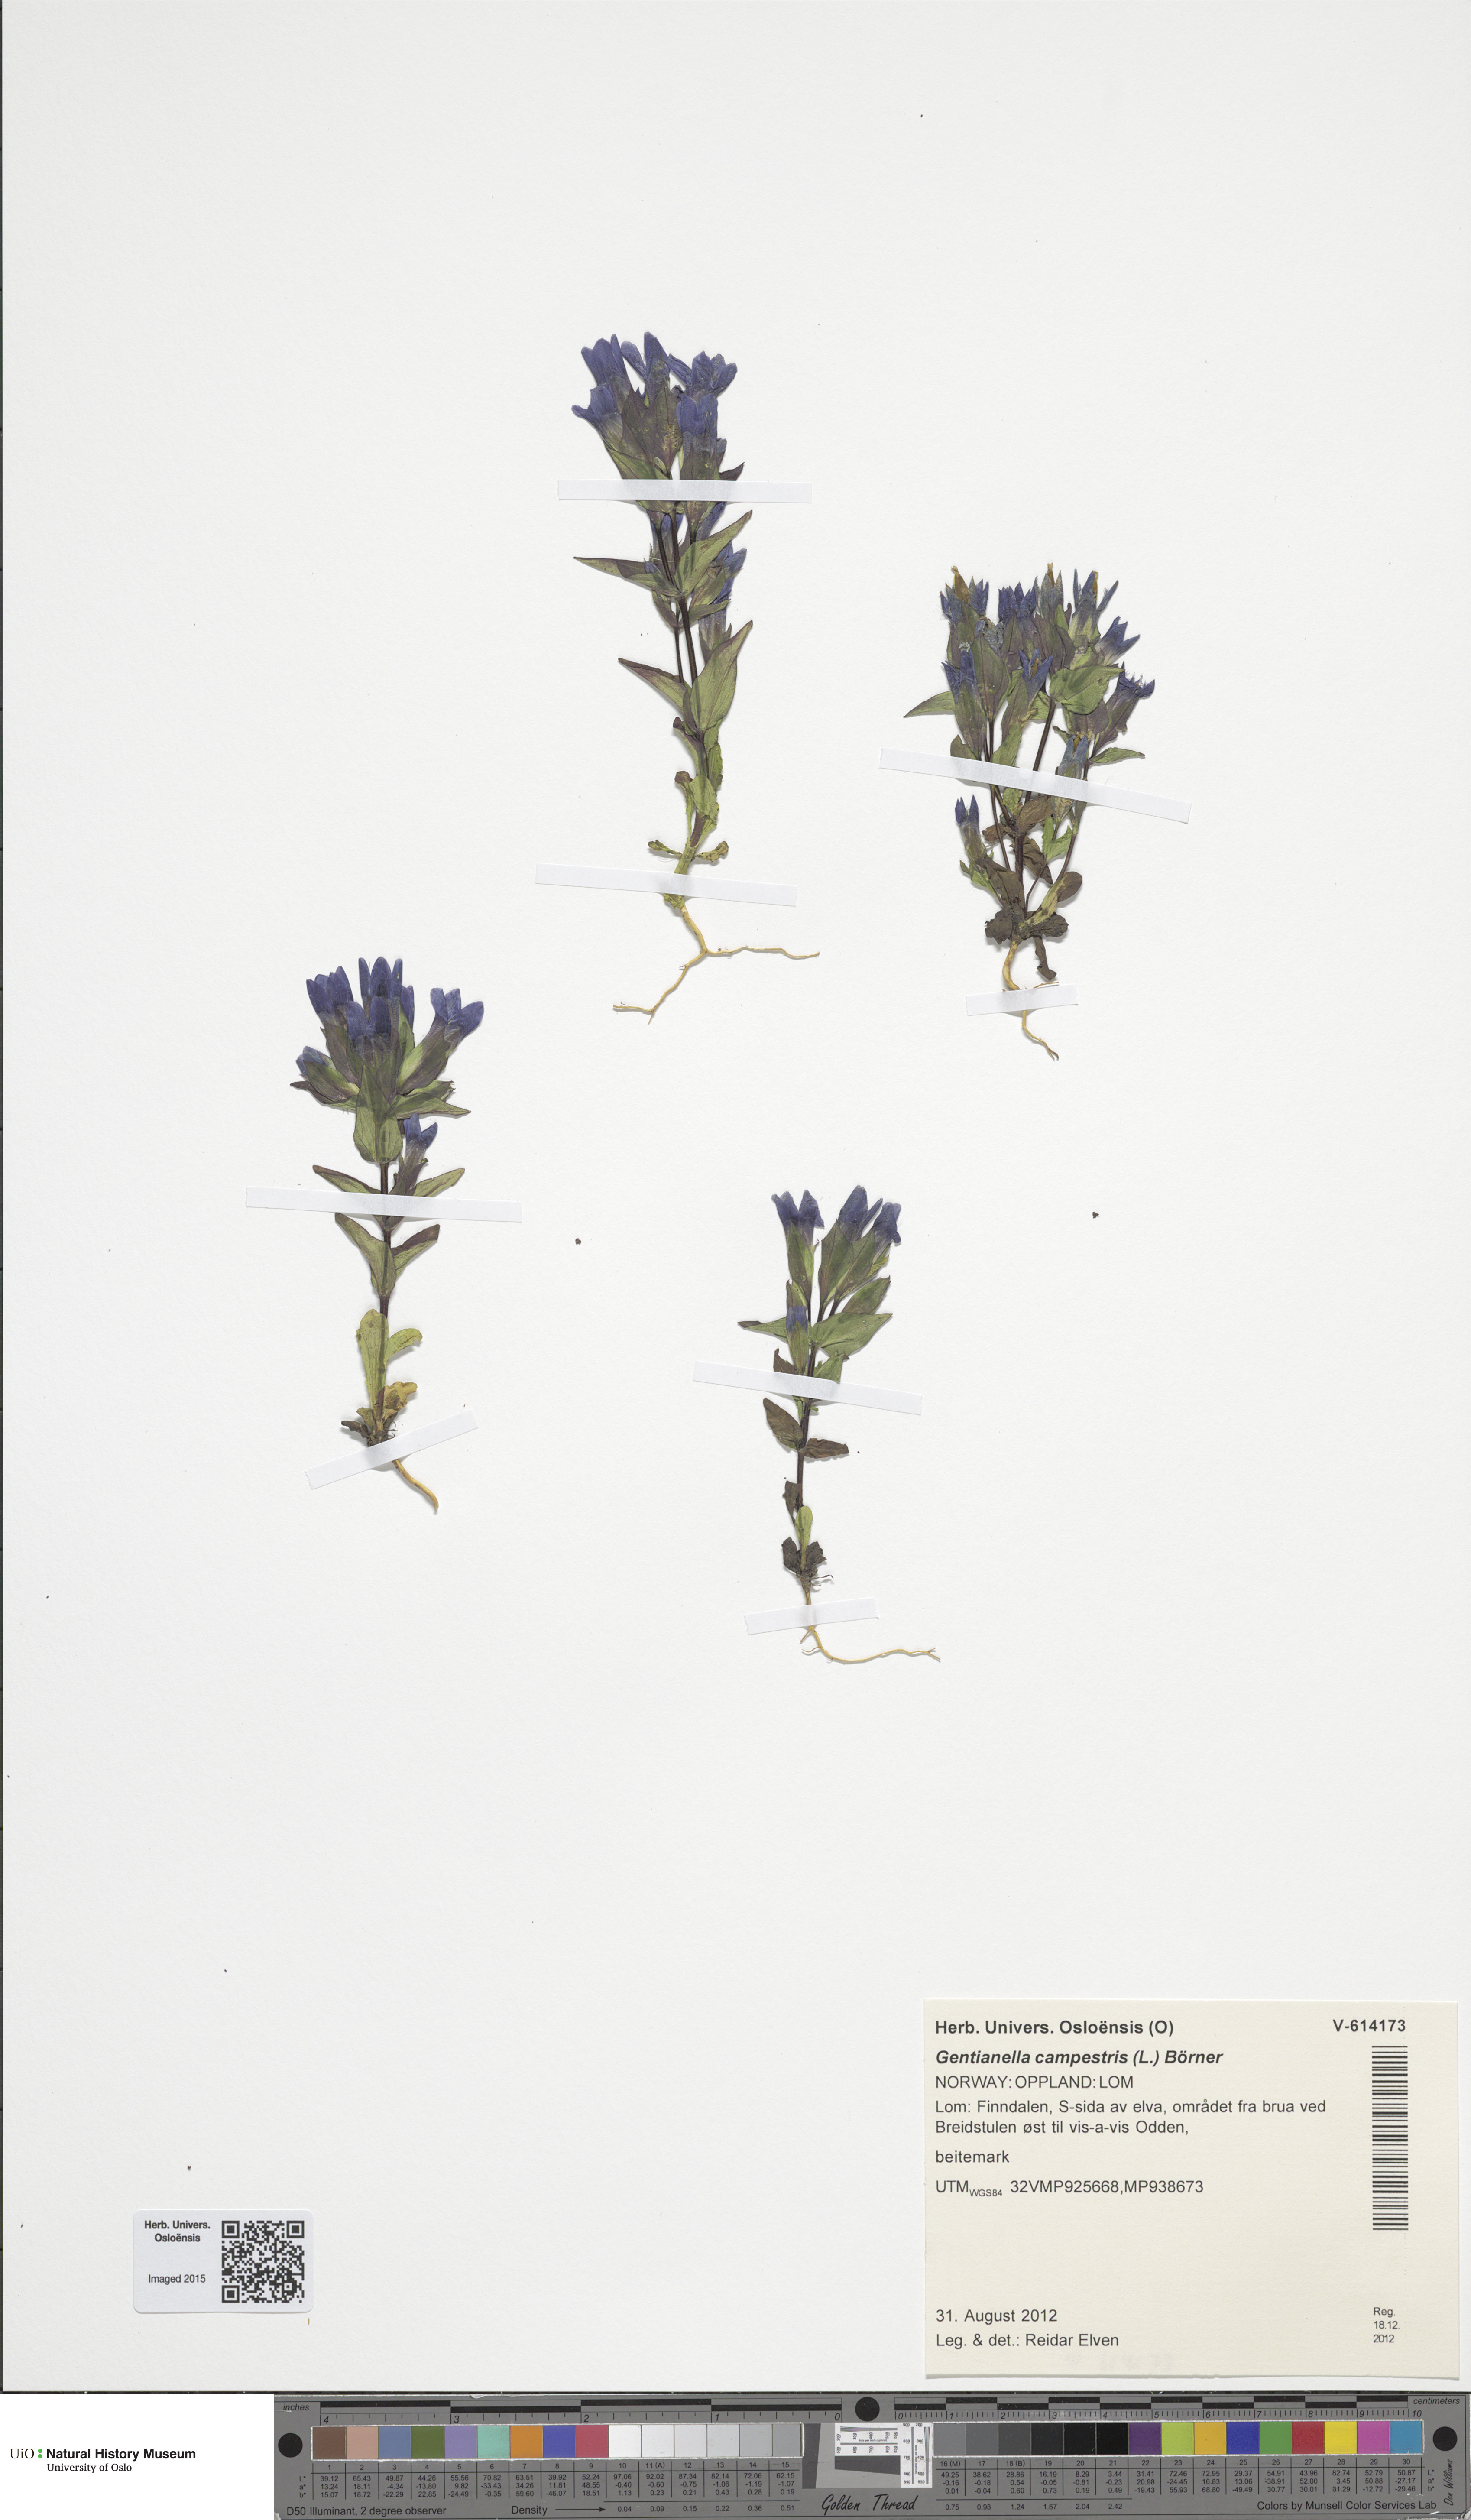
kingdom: Plantae
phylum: Tracheophyta
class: Magnoliopsida
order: Gentianales
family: Gentianaceae
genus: Gentianella
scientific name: Gentianella campestris
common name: Field gentian
